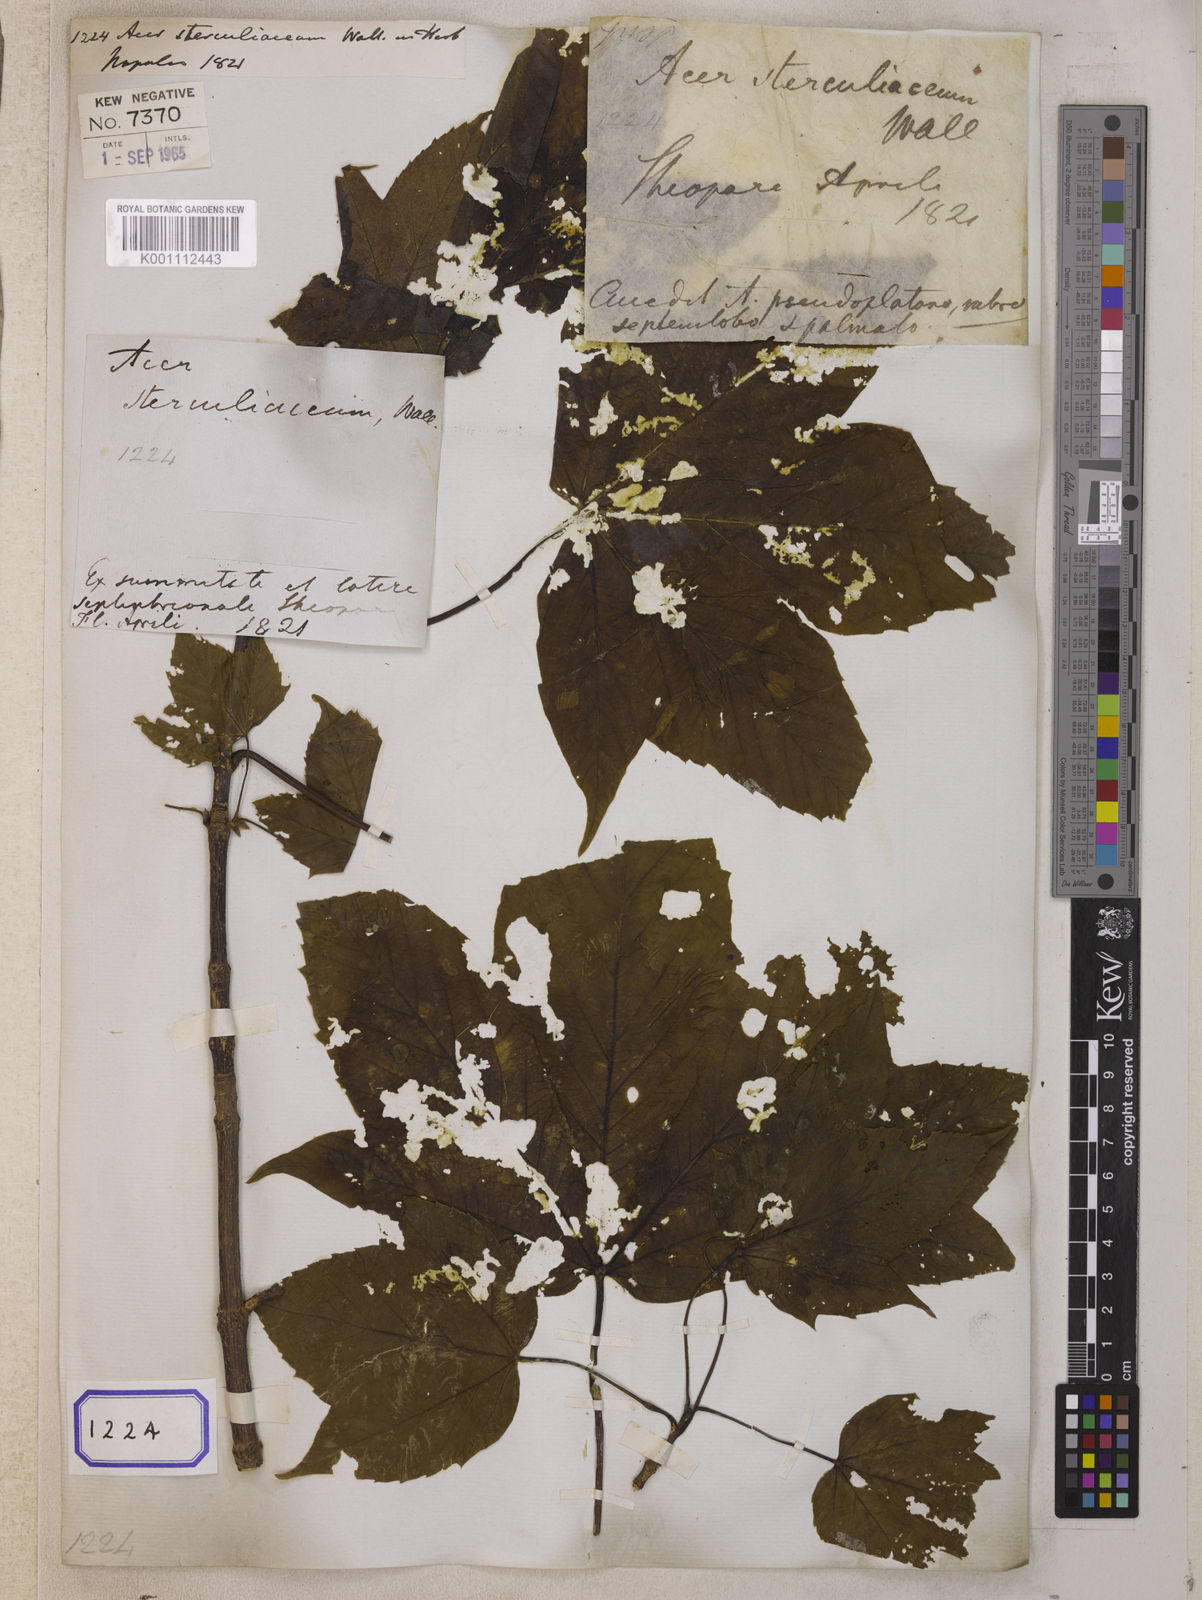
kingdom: Plantae
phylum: Tracheophyta
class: Magnoliopsida
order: Sapindales
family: Sapindaceae
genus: Acer
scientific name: Acer sterculiaceum
